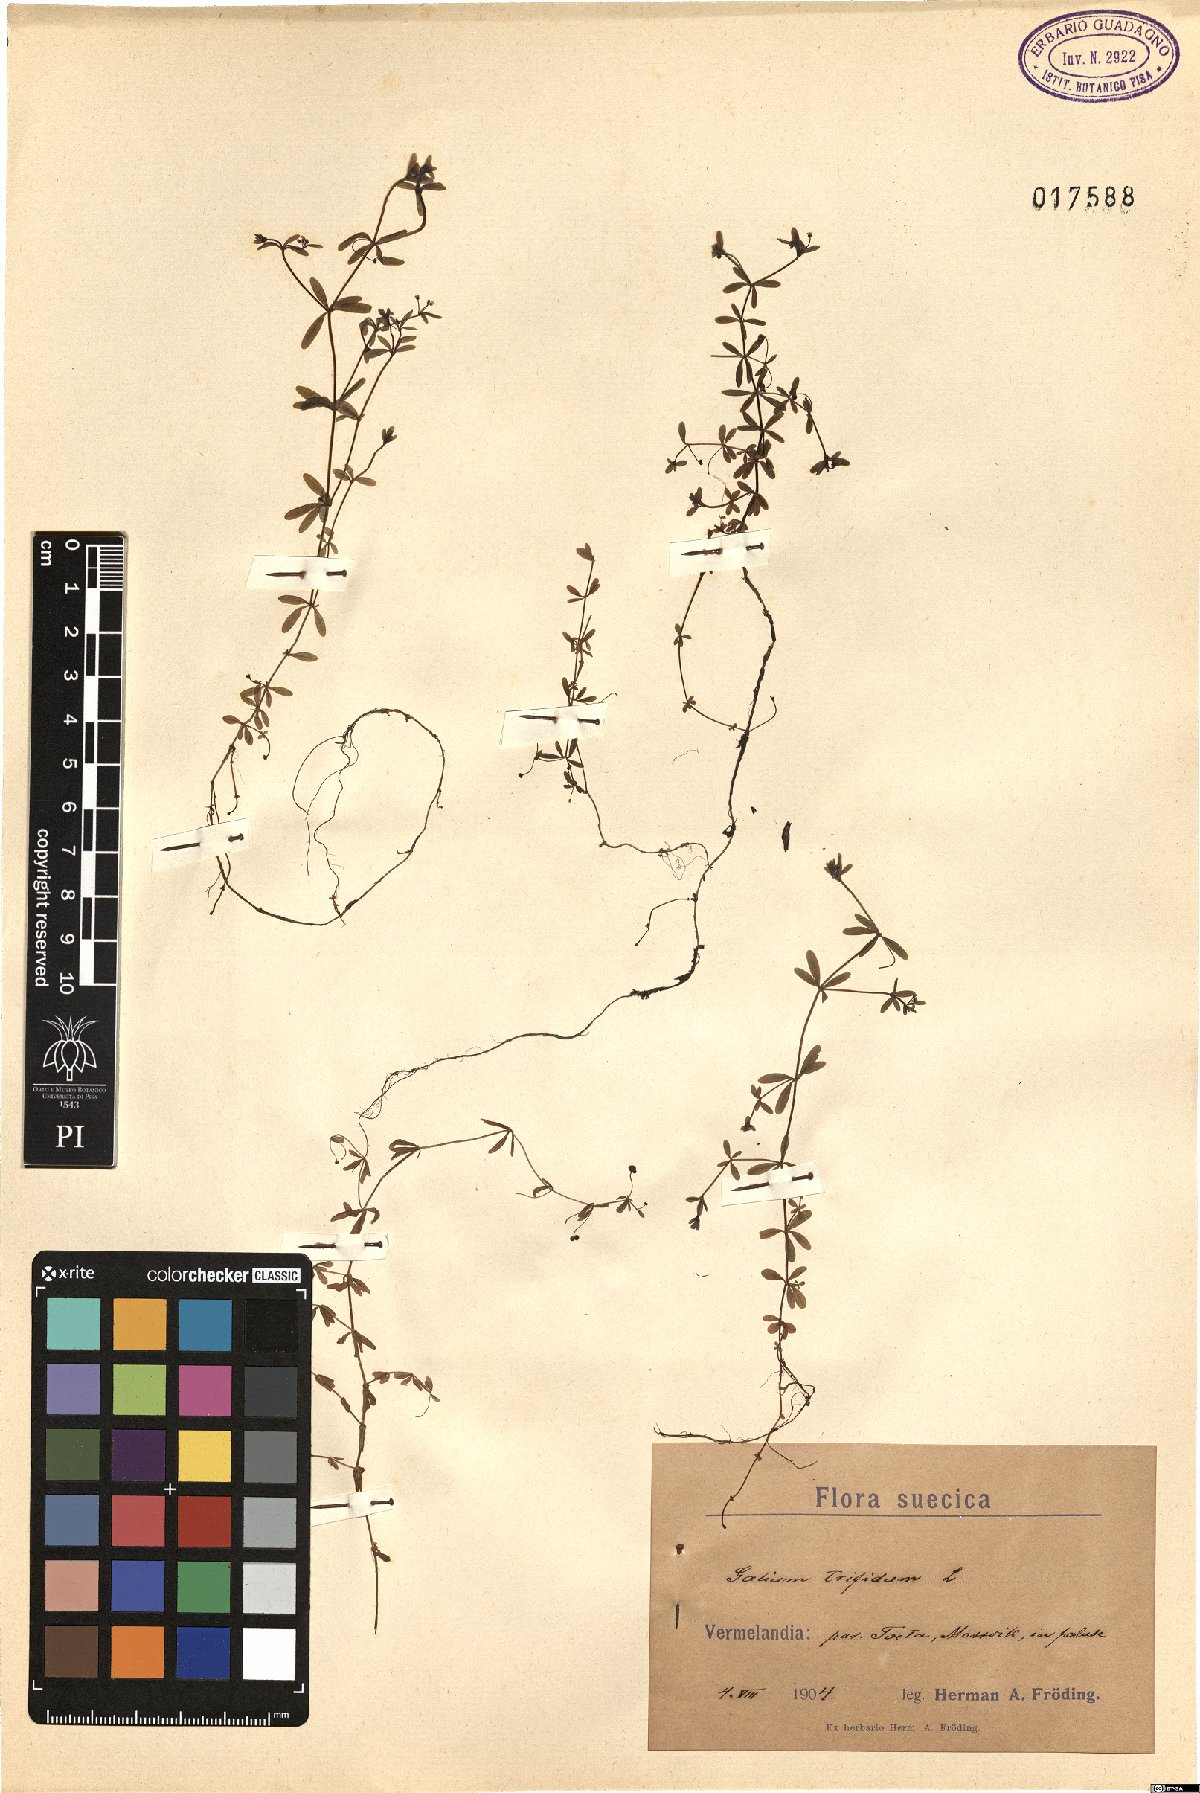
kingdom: Plantae
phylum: Tracheophyta
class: Magnoliopsida
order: Gentianales
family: Rubiaceae
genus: Galium
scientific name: Galium trifidum
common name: Small bedstraw
